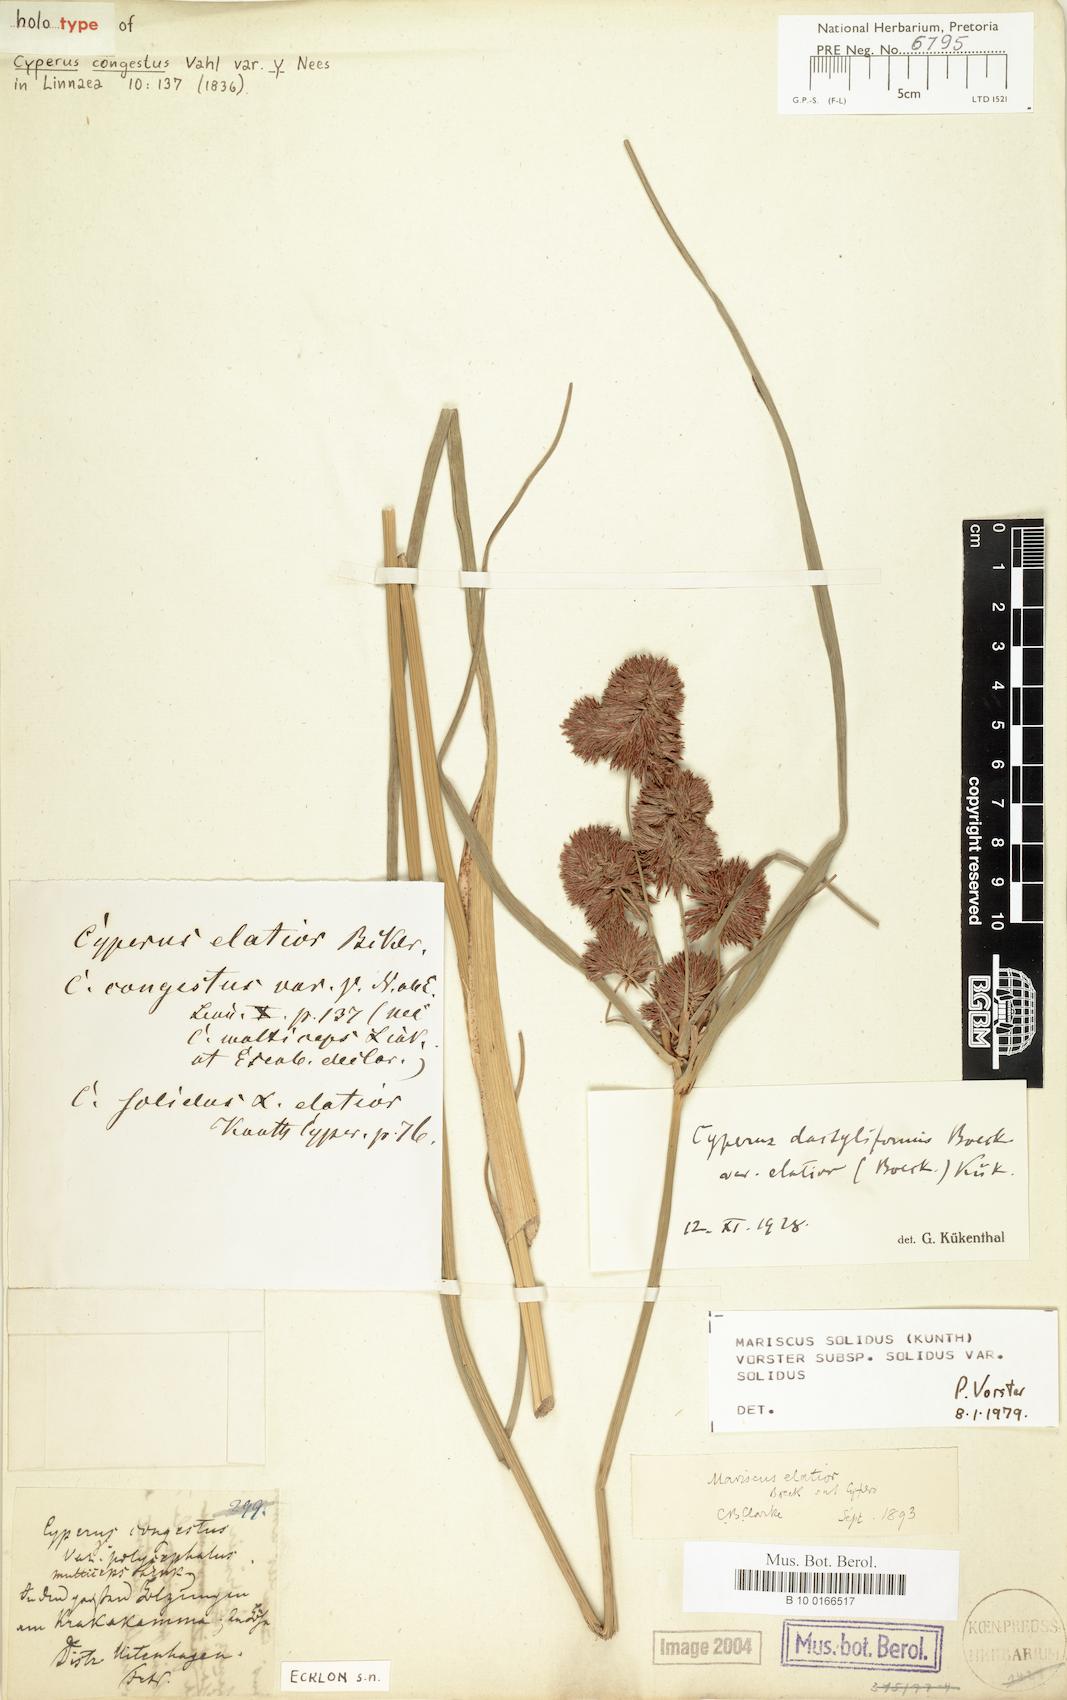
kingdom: Plantae
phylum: Tracheophyta
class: Liliopsida
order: Poales
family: Cyperaceae
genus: Cyperus
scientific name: Cyperus solidus
